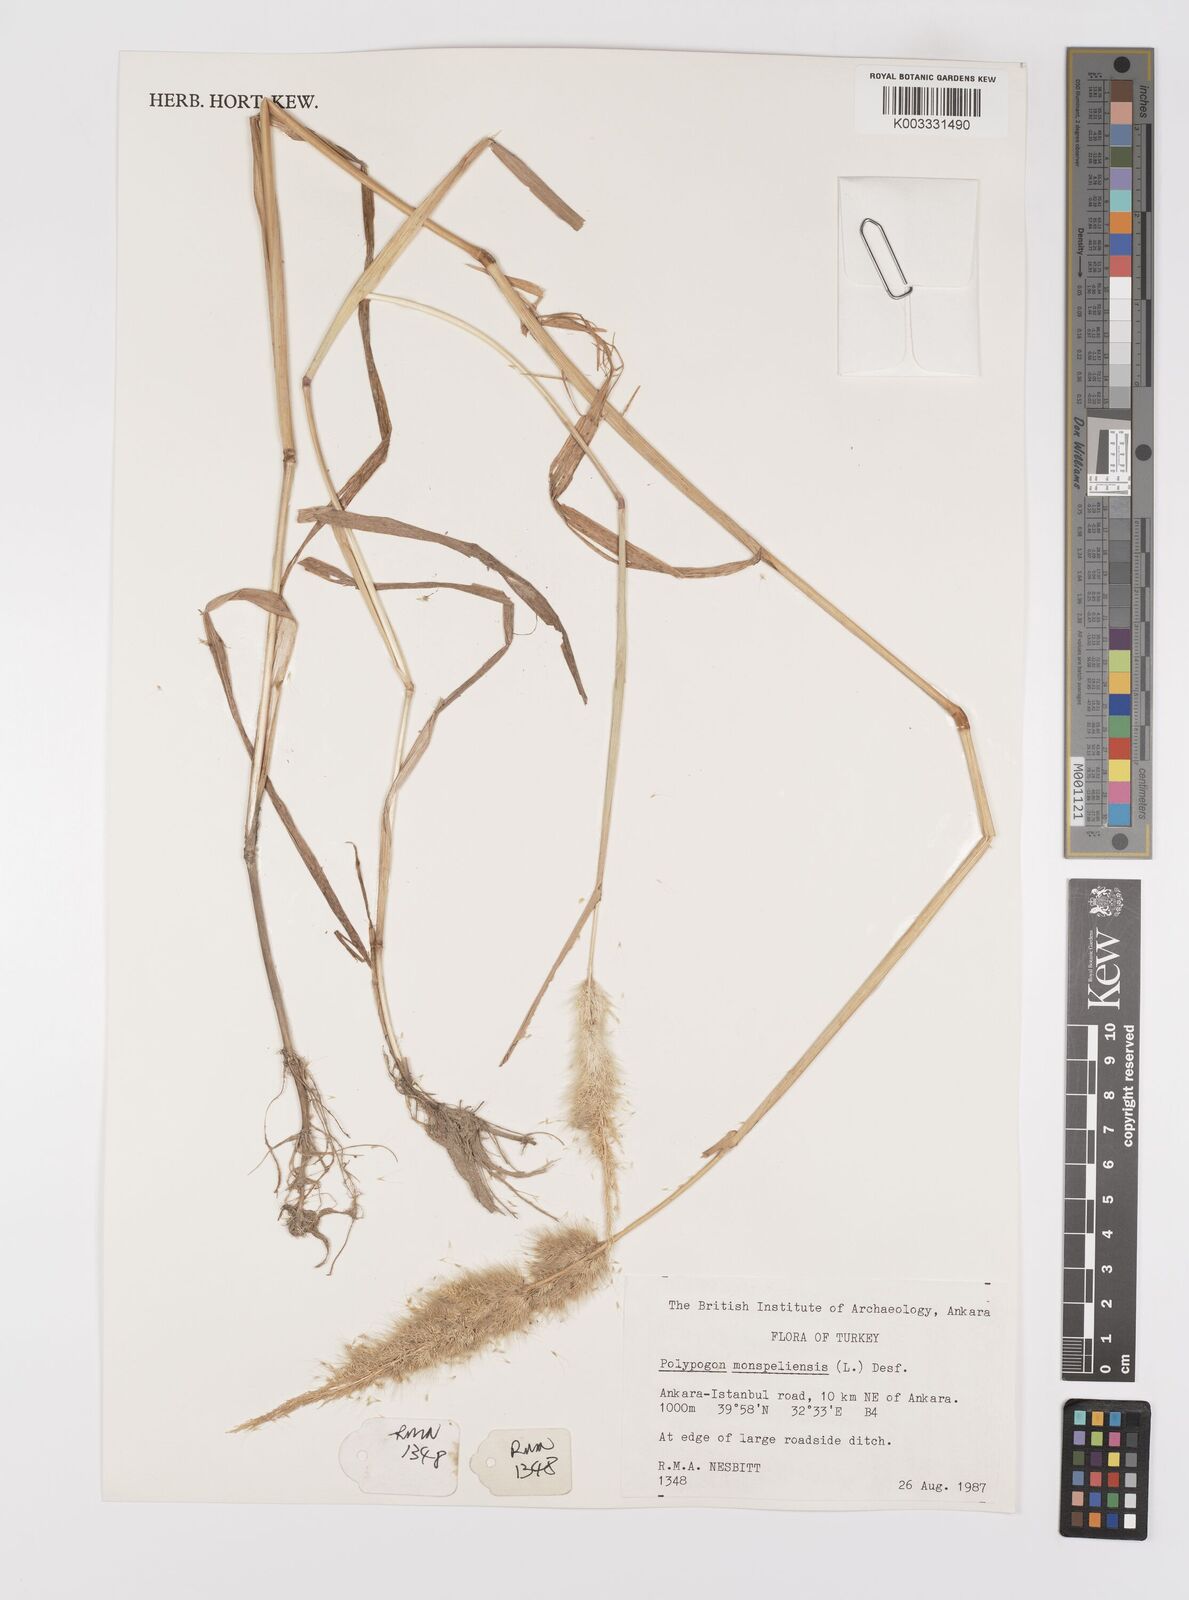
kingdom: Plantae
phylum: Tracheophyta
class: Liliopsida
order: Poales
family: Poaceae
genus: Polypogon
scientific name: Polypogon monspeliensis
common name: Annual rabbitsfoot grass
